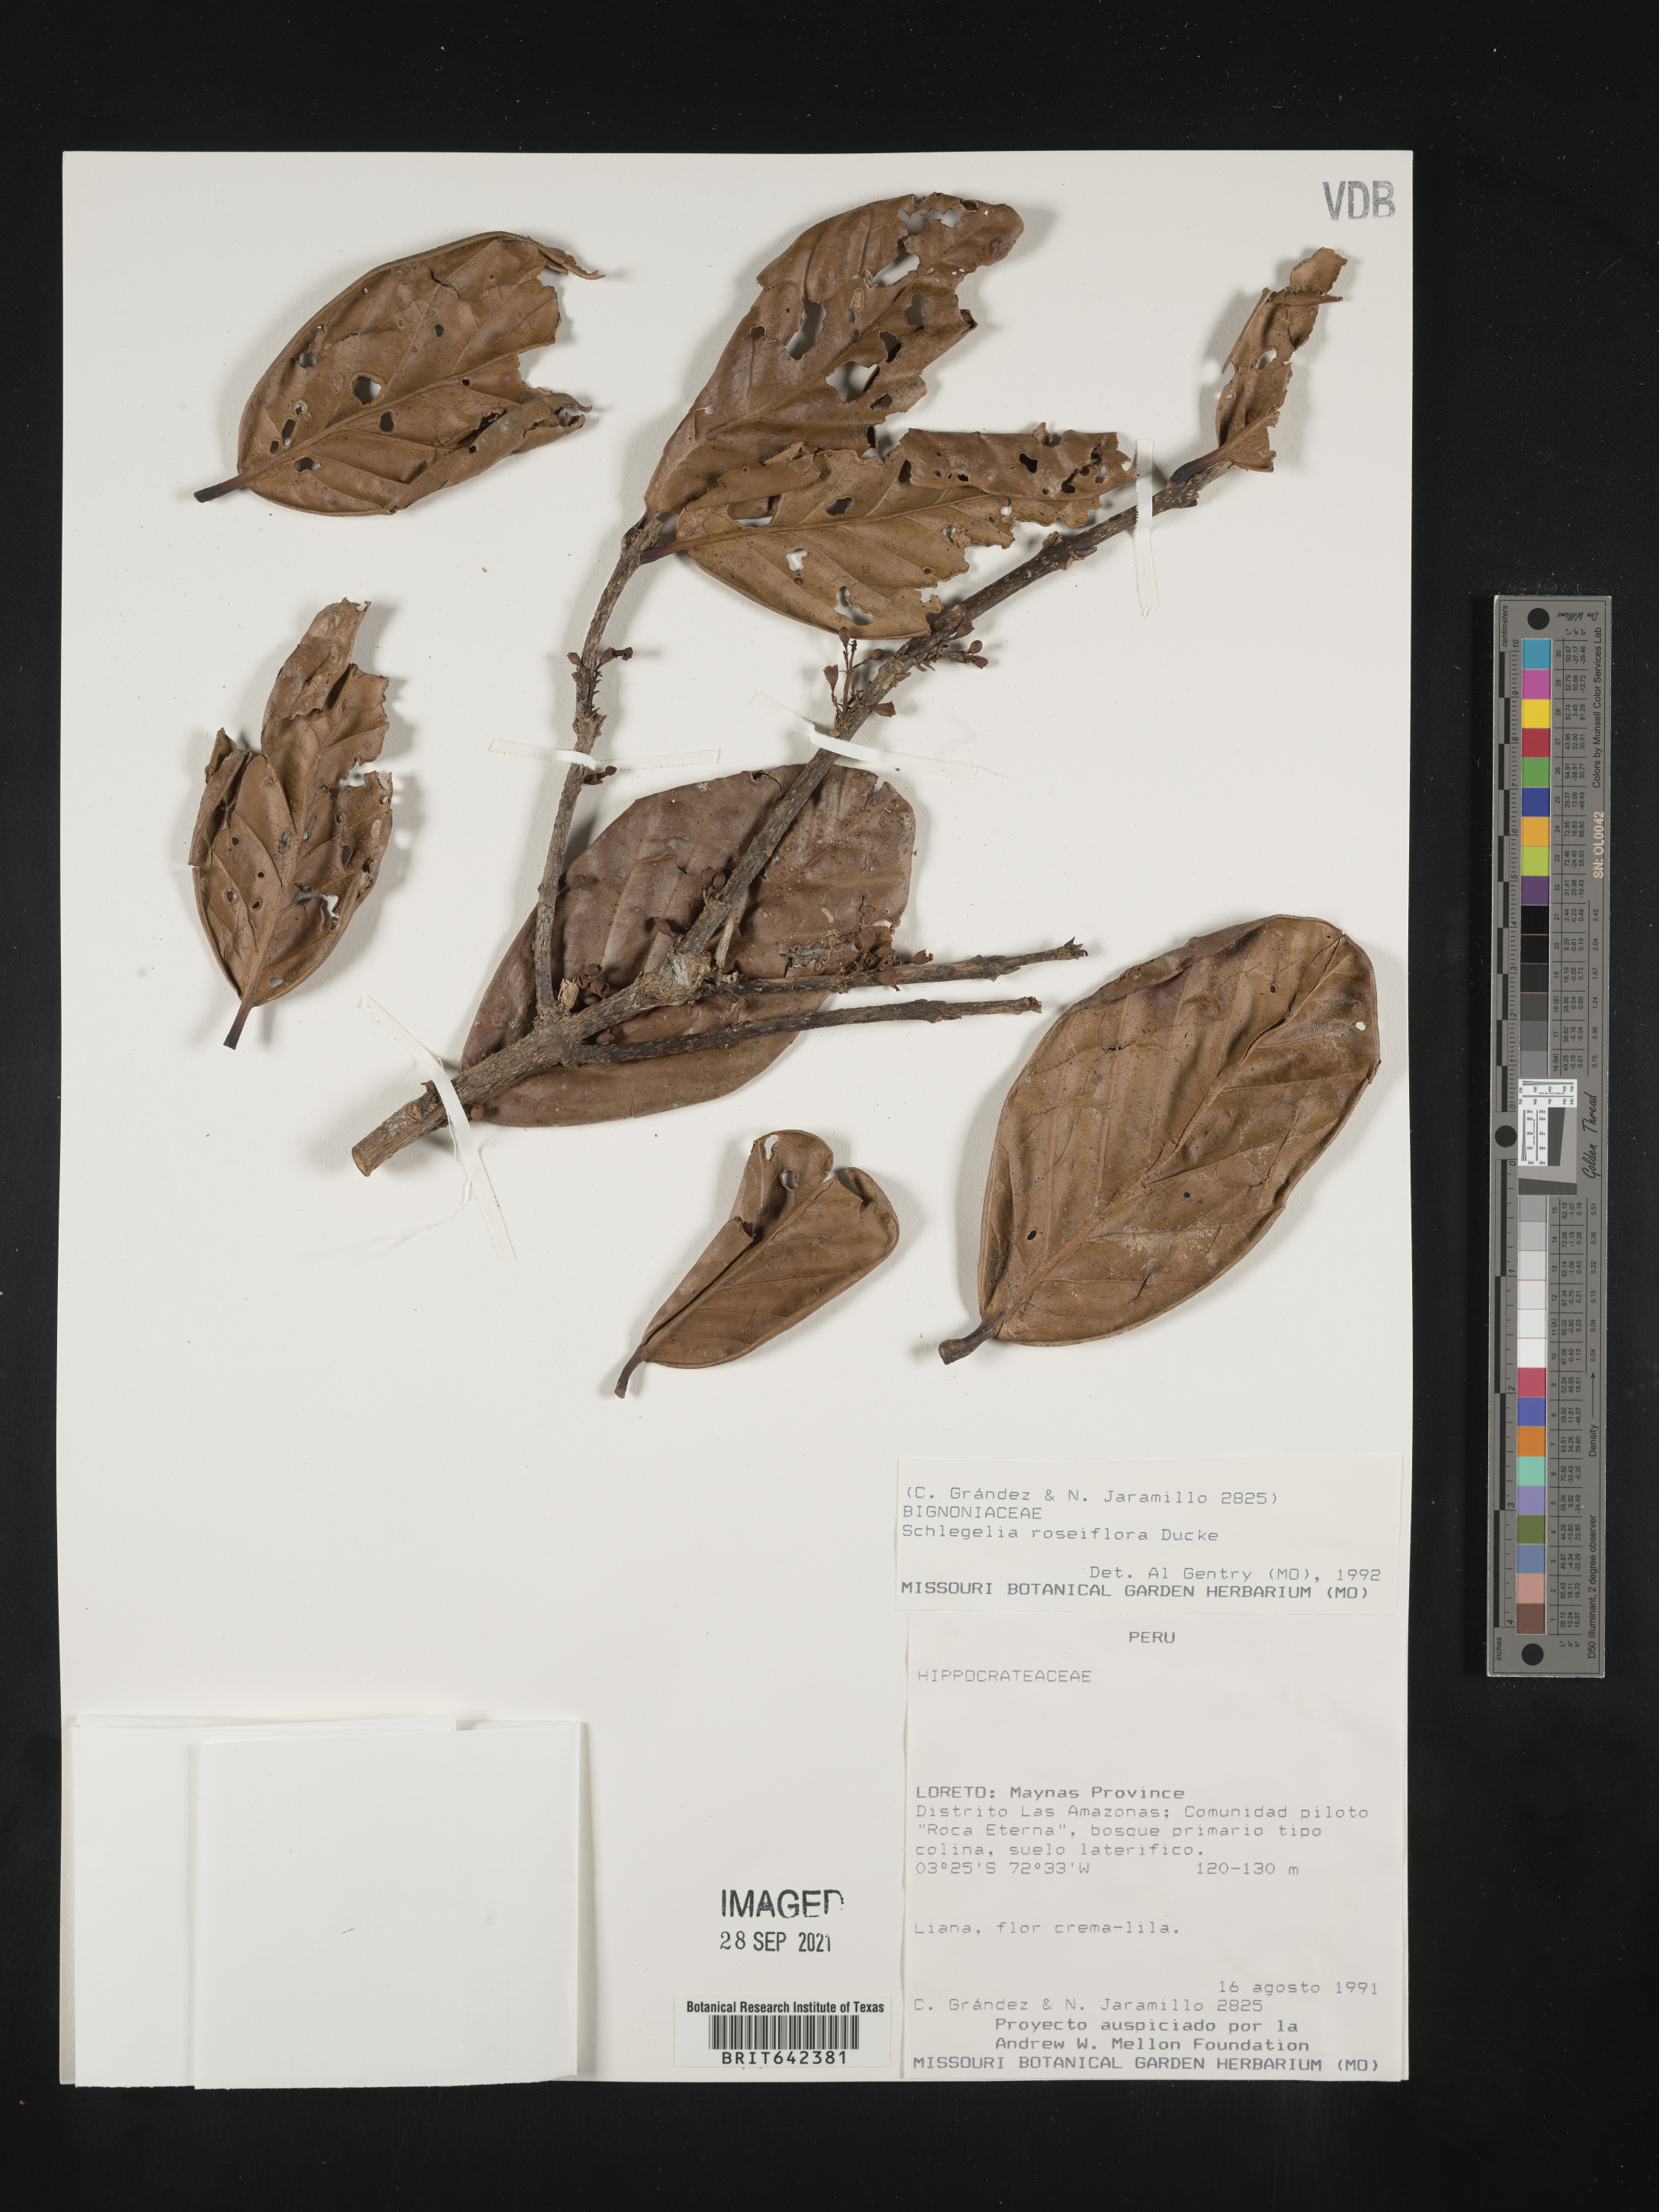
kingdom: Plantae
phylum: Tracheophyta
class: Magnoliopsida
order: Lamiales
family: Schlegeliaceae
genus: Schlegelia
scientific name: Schlegelia
